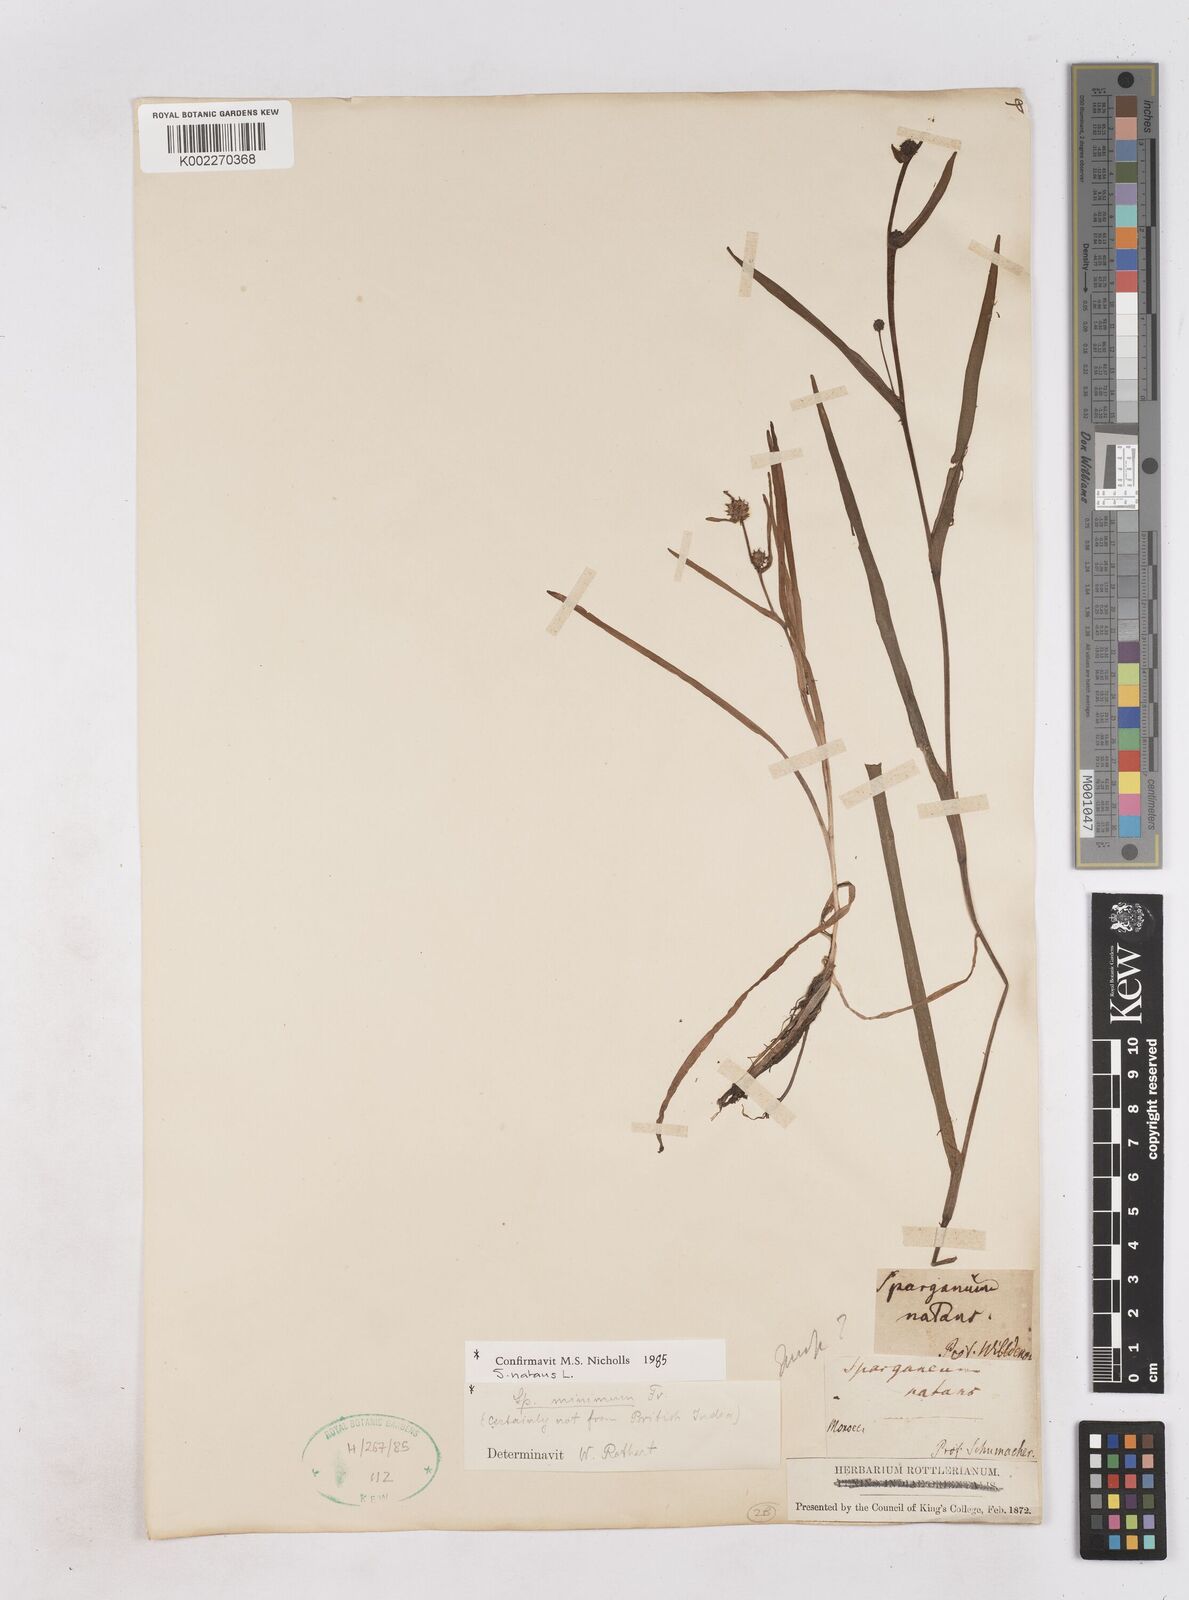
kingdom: Plantae
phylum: Tracheophyta
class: Liliopsida
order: Poales
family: Typhaceae
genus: Sparganium
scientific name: Sparganium natans
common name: Least bur-reed
